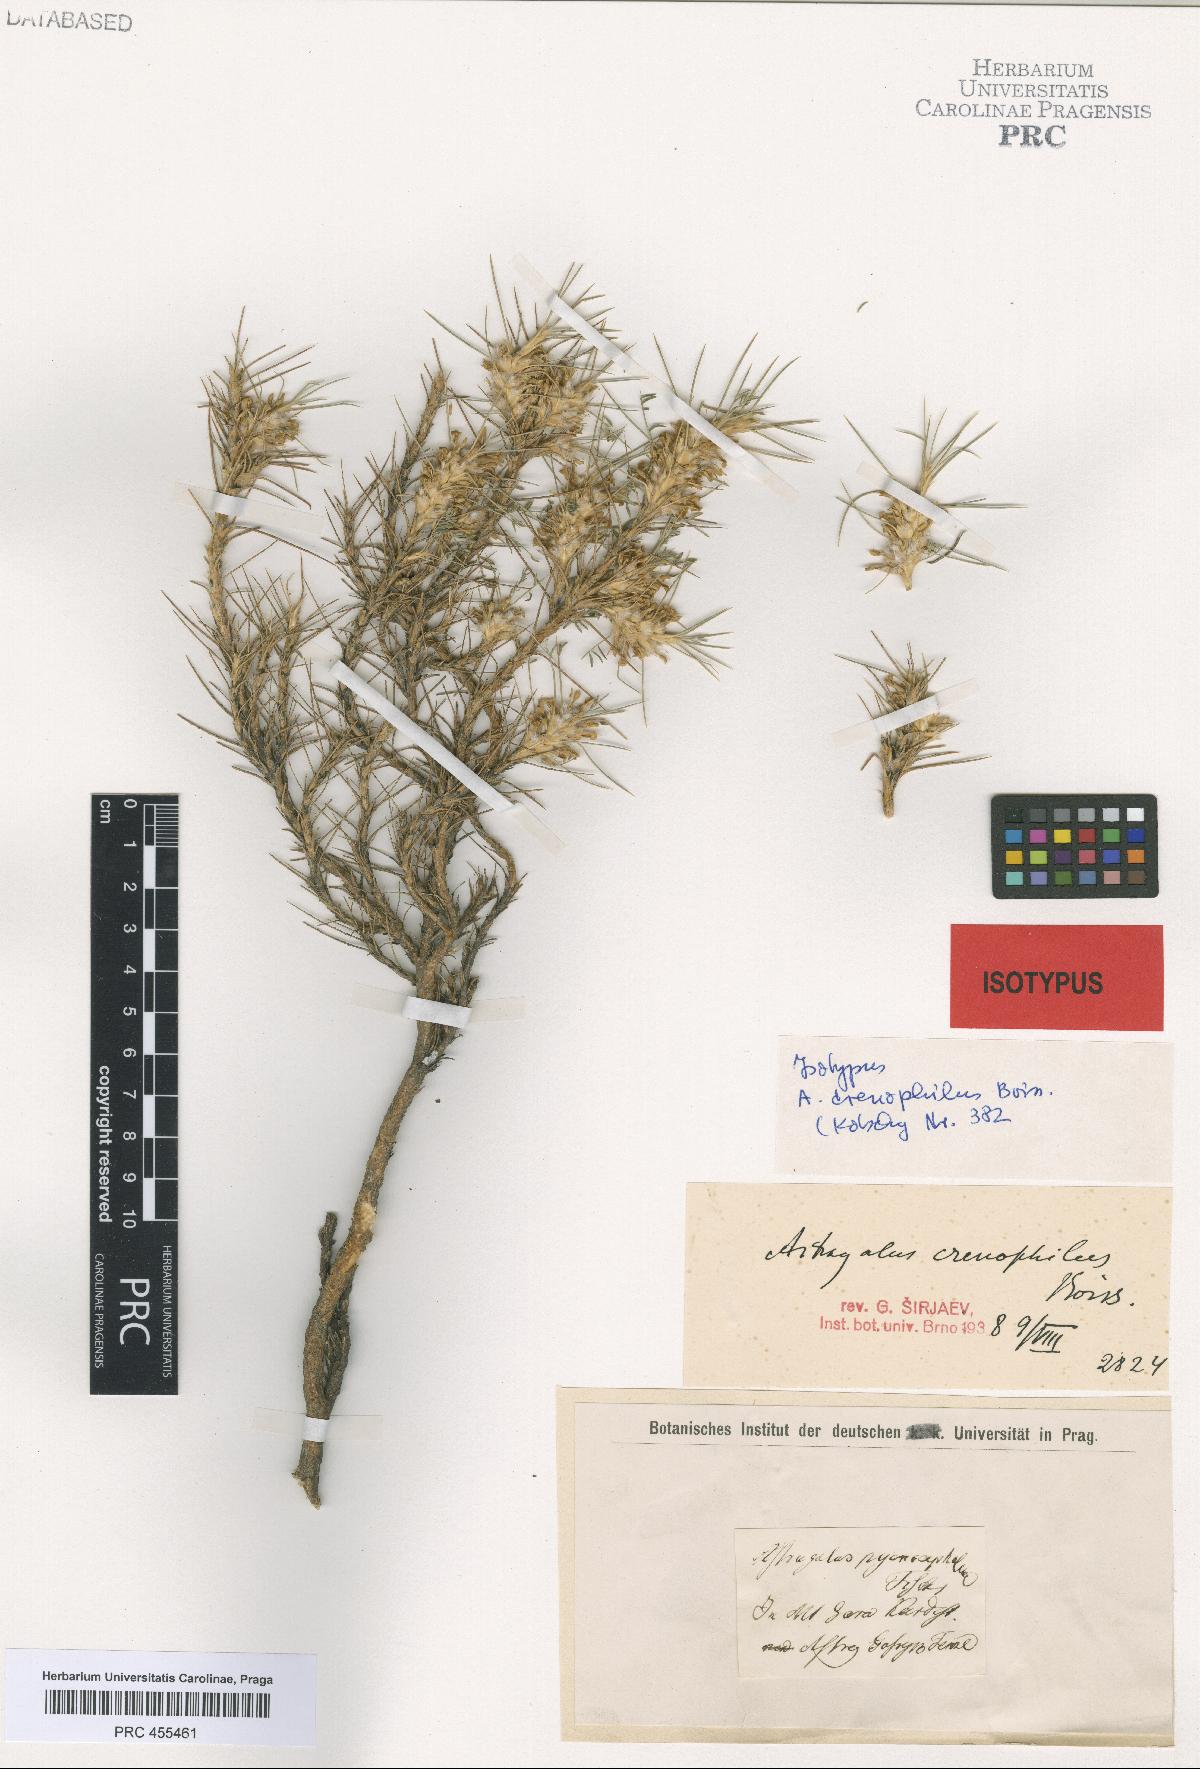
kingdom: Plantae
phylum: Tracheophyta
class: Magnoliopsida
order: Fabales
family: Fabaceae
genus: Astragalus
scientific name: Astragalus caspicus
